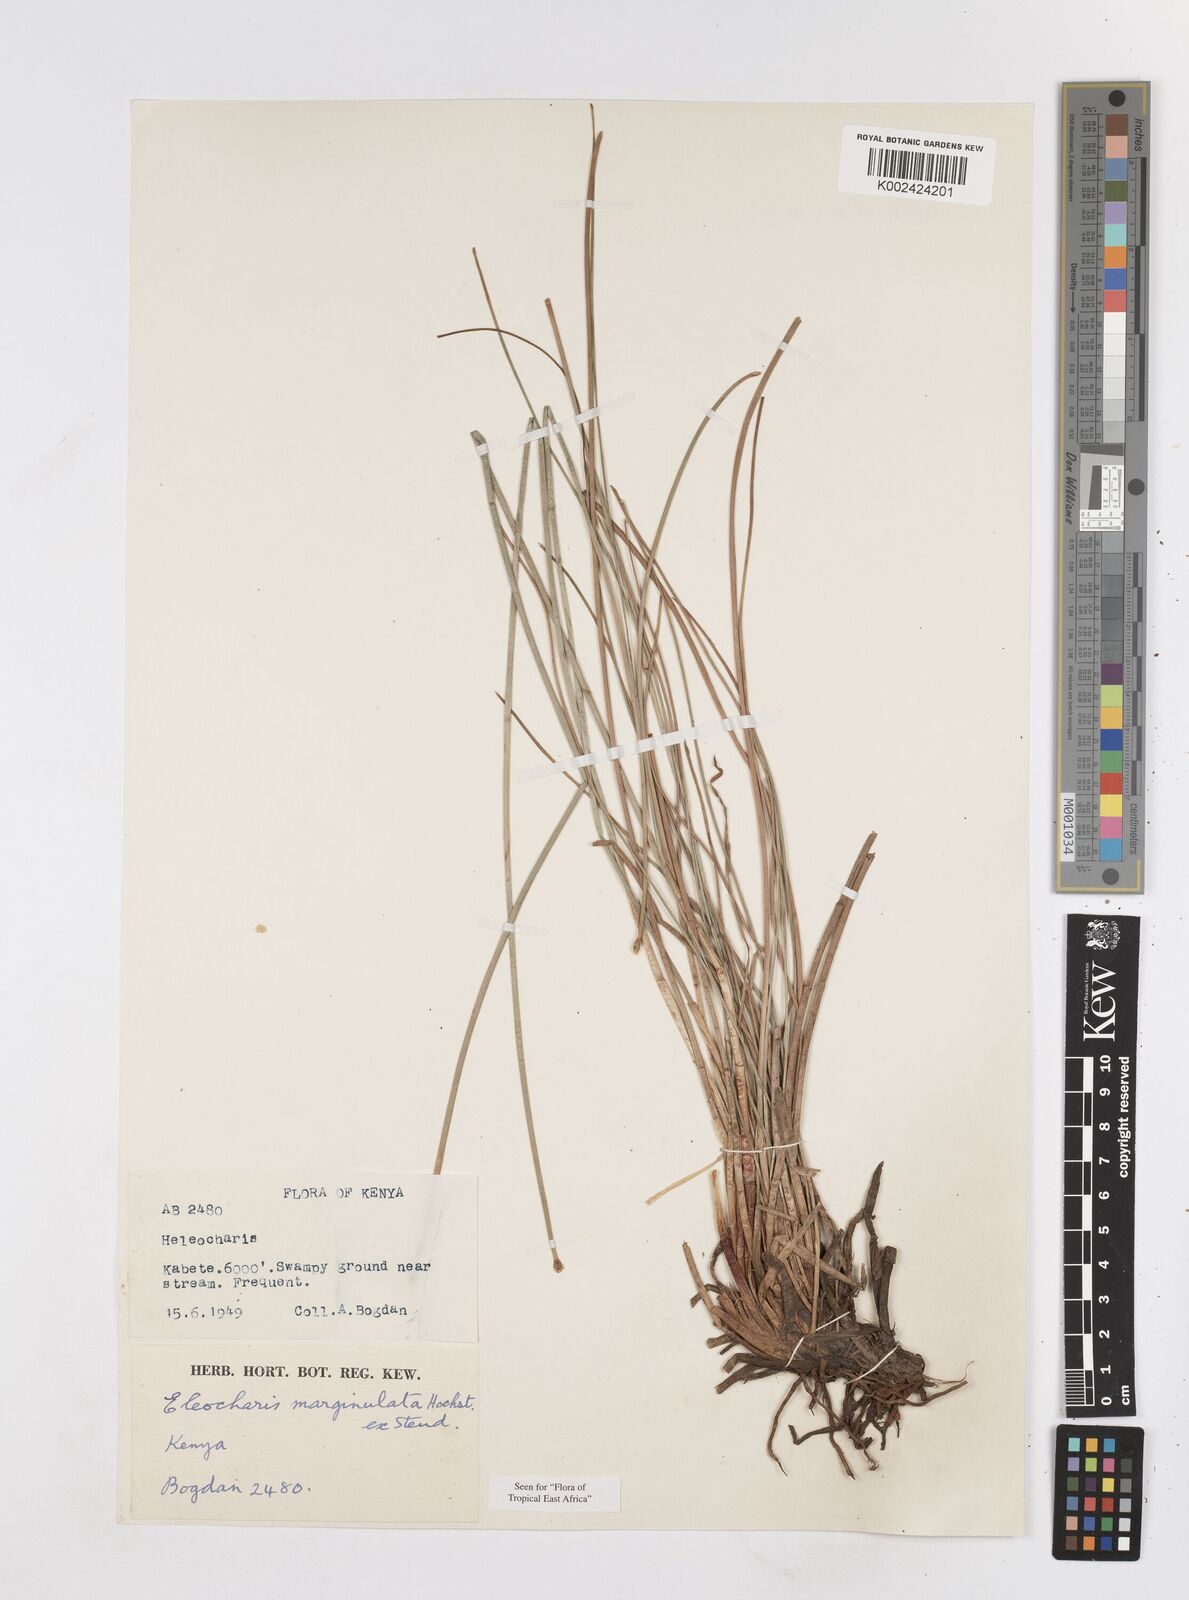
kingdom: Plantae
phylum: Tracheophyta
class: Liliopsida
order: Poales
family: Cyperaceae
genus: Eleocharis
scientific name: Eleocharis marginulata
